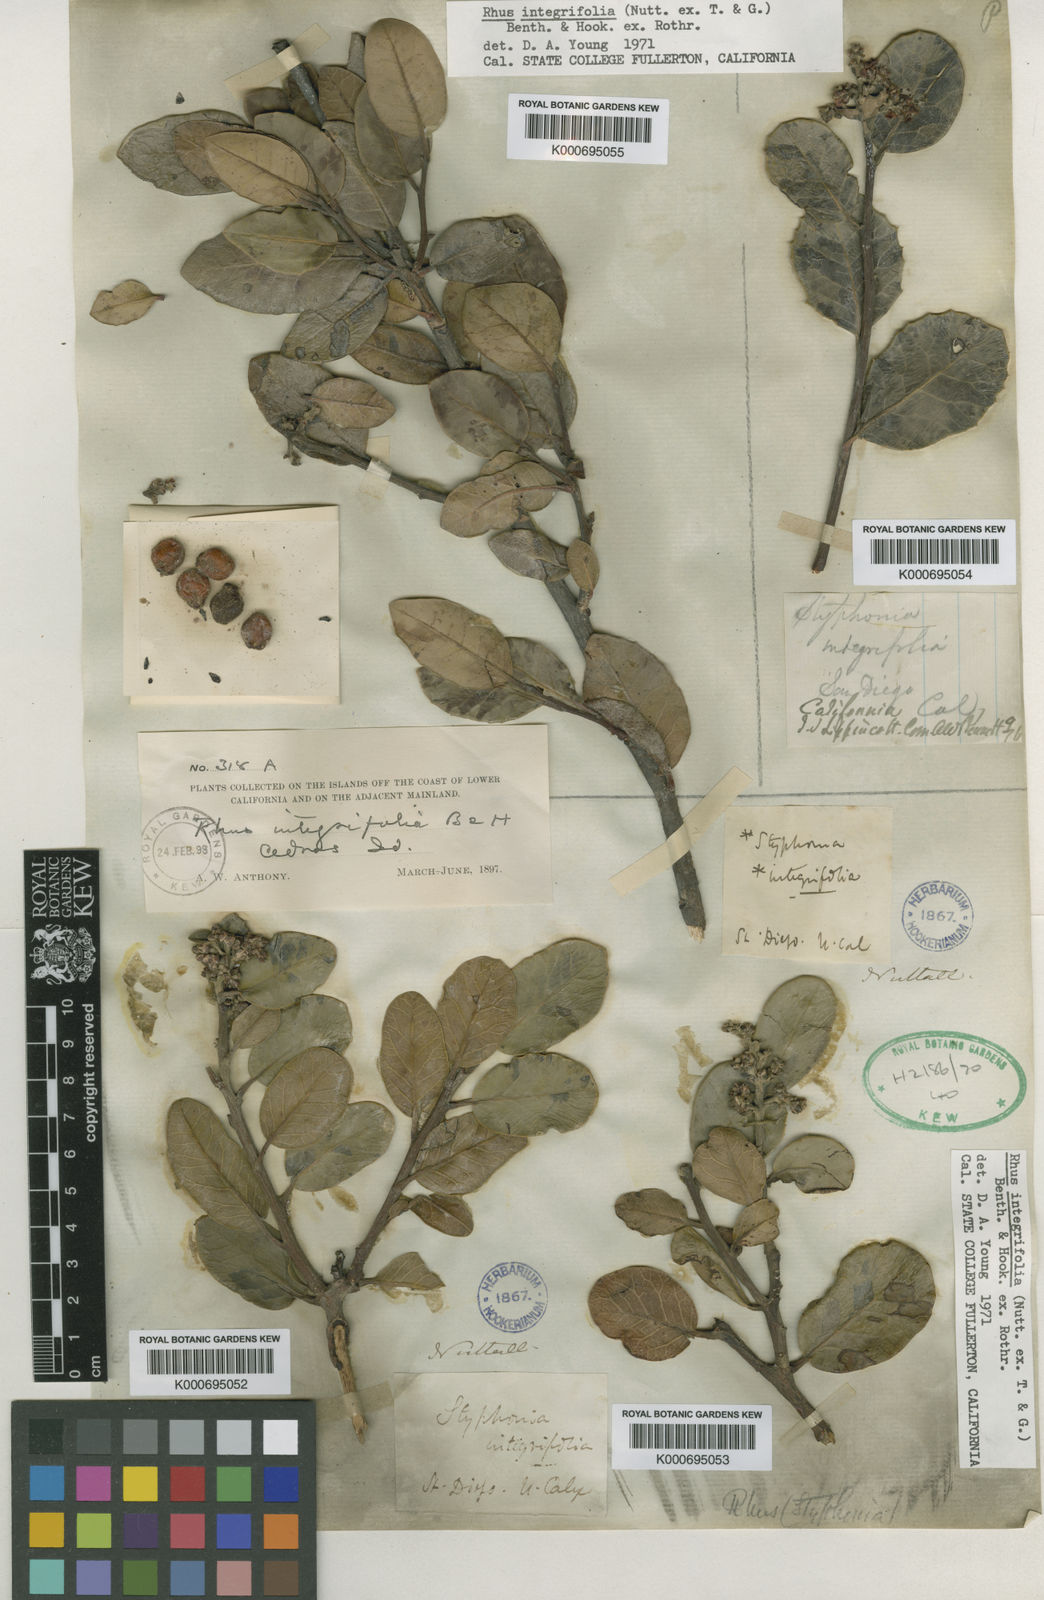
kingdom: Plantae
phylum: Tracheophyta
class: Magnoliopsida
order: Sapindales
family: Anacardiaceae
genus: Rhus
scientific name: Rhus
